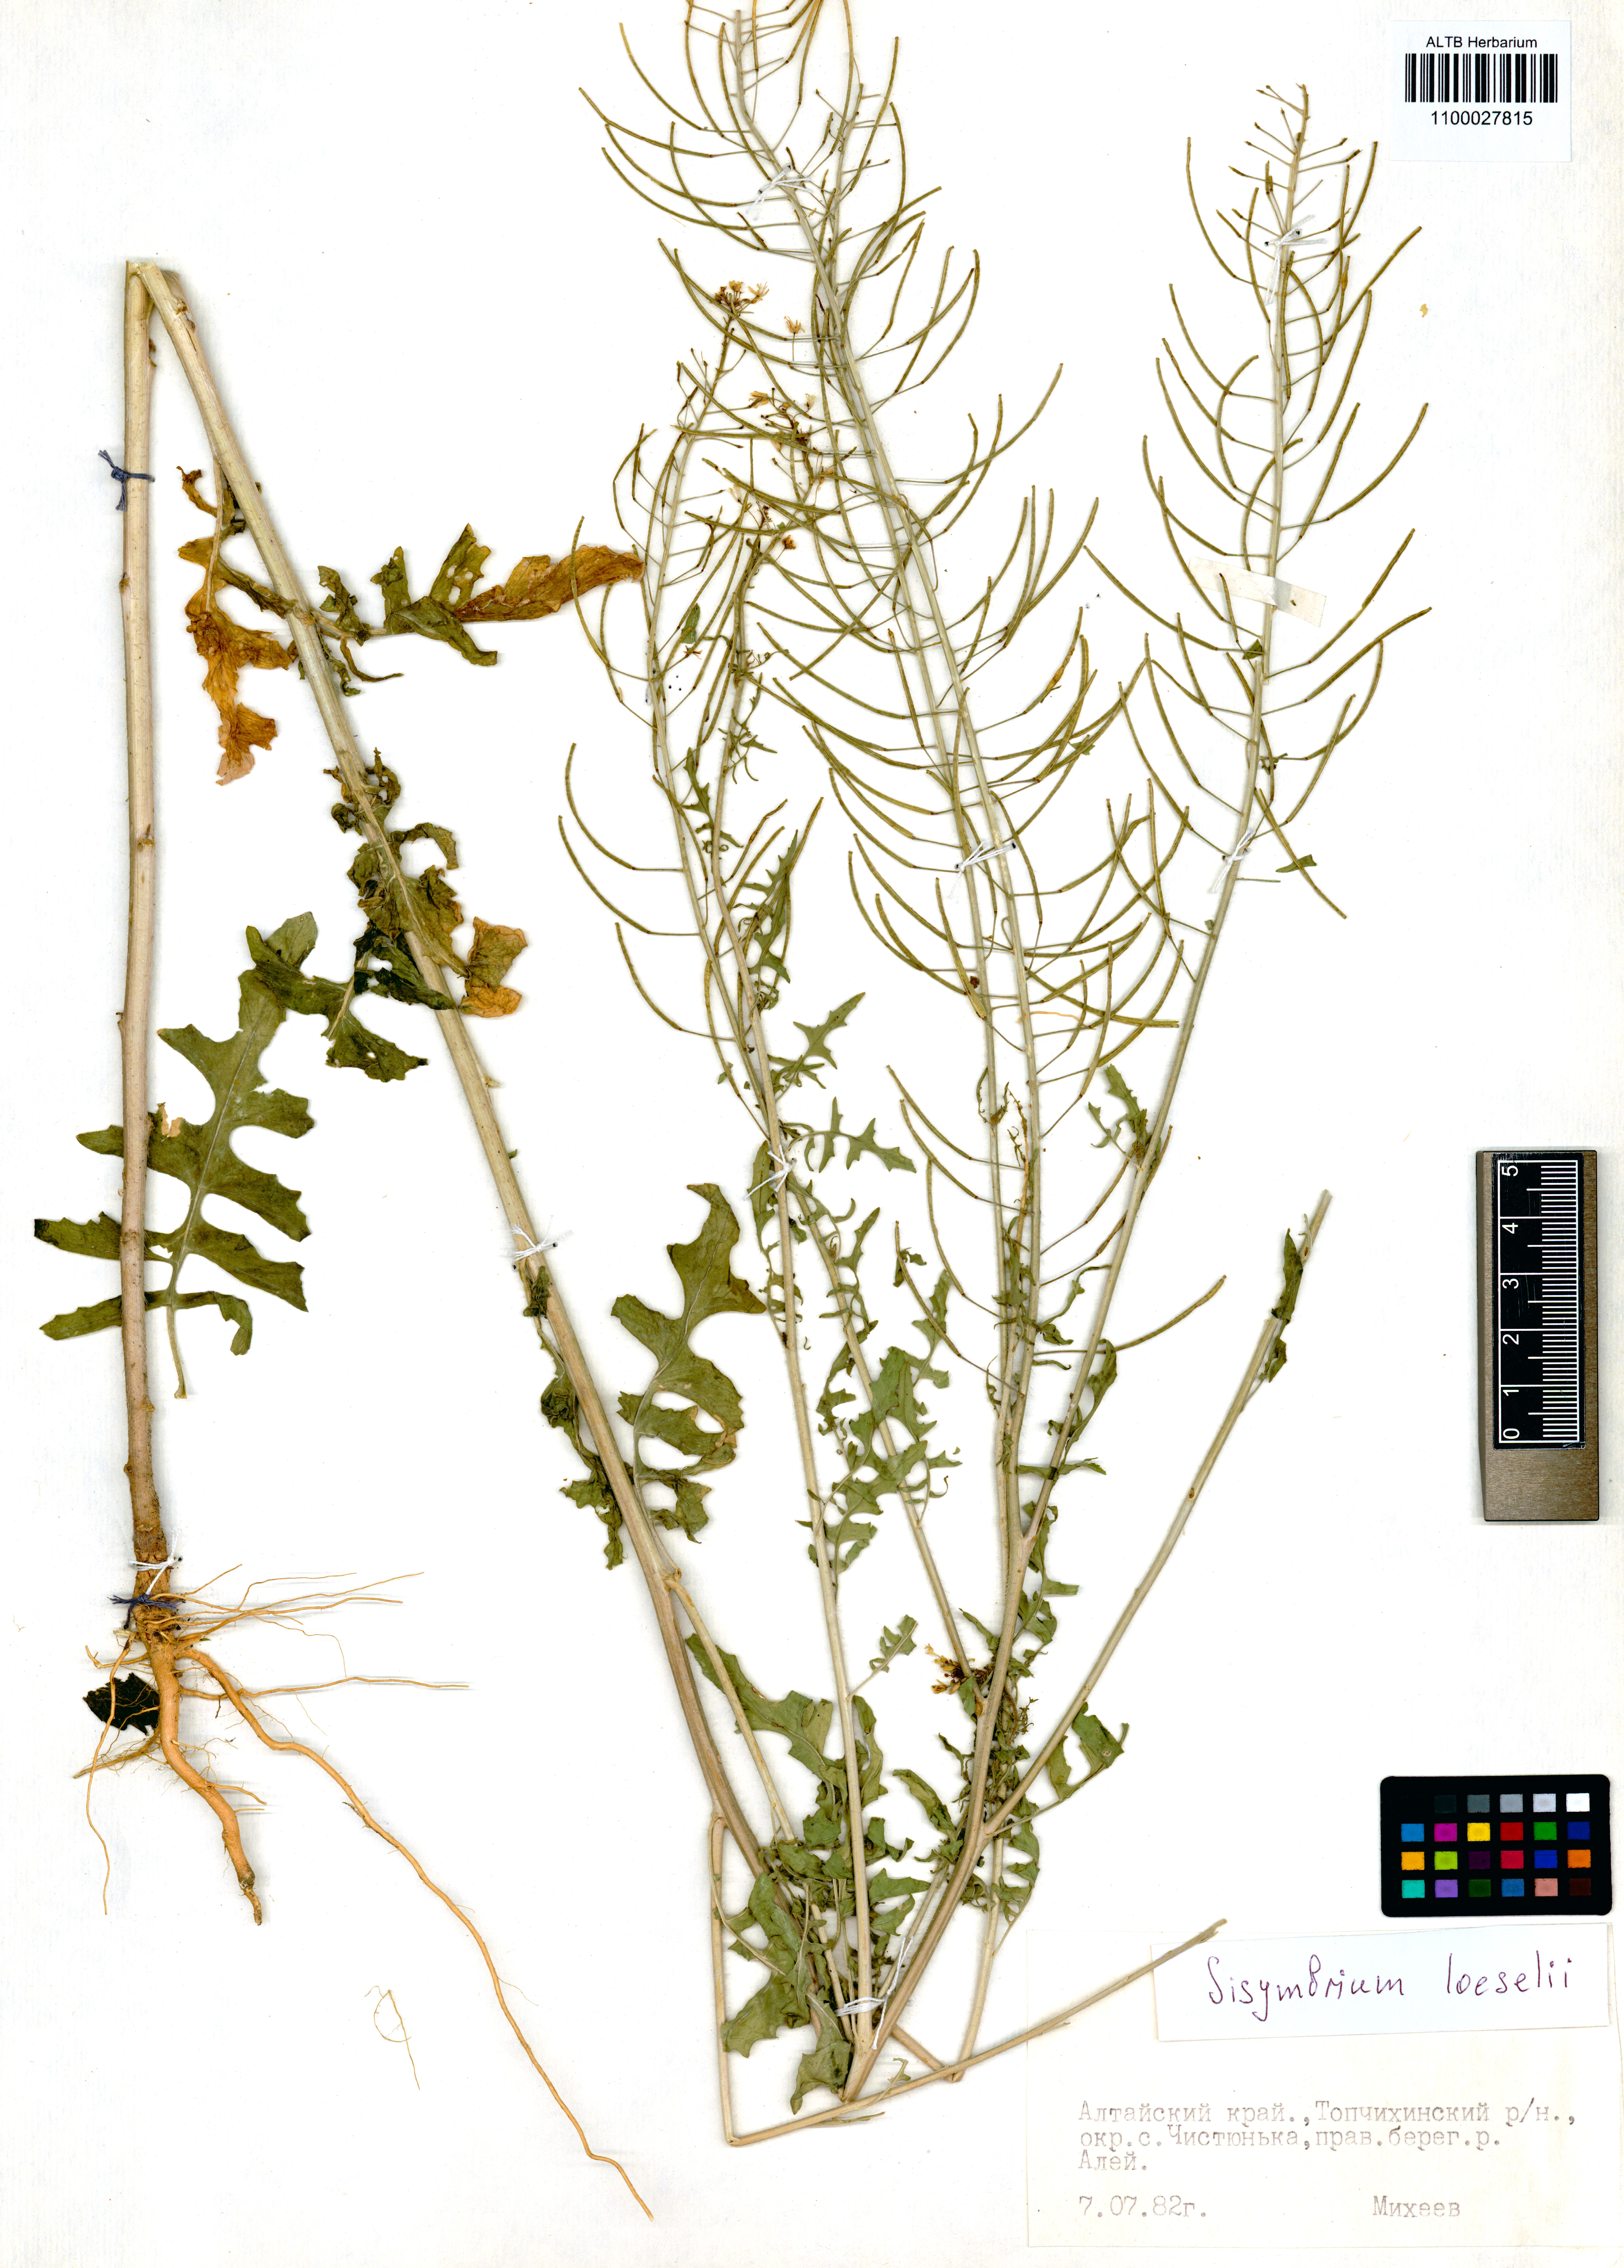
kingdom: Plantae
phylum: Tracheophyta
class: Magnoliopsida
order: Brassicales
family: Brassicaceae
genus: Sisymbrium
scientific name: Sisymbrium loeselii
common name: False london-rocket
